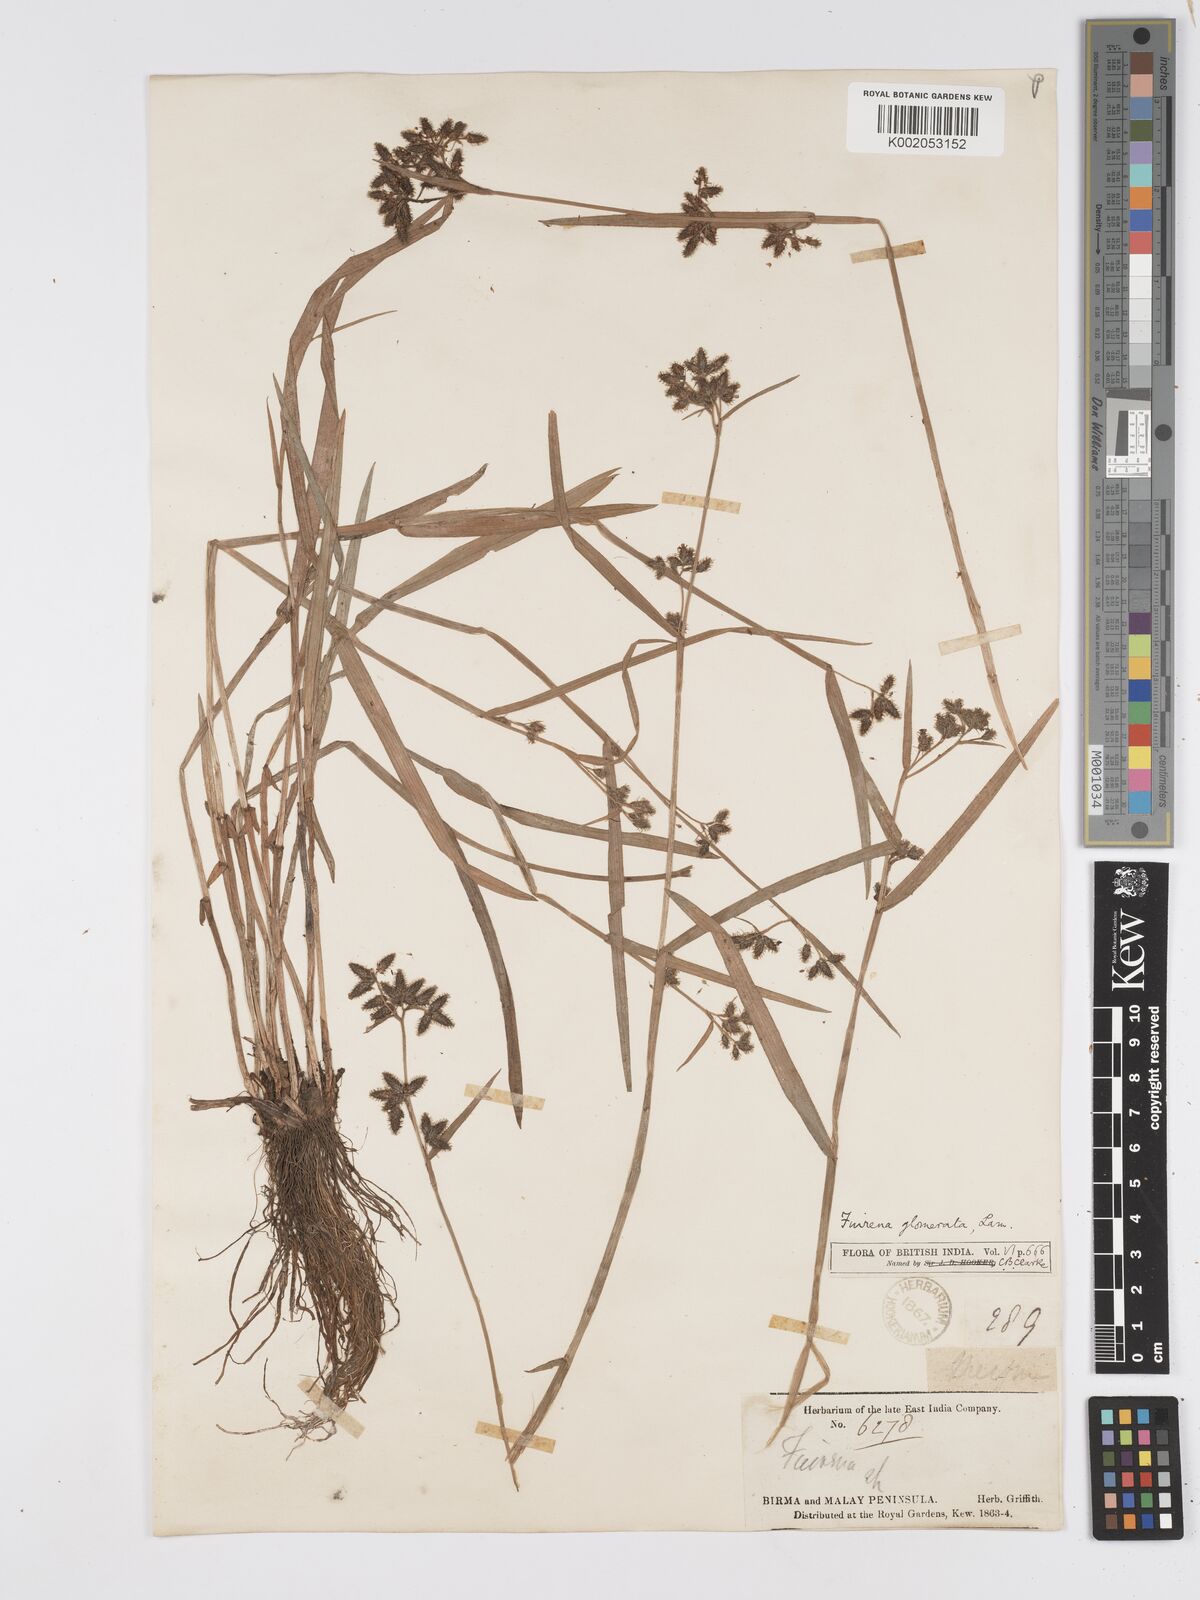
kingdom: Plantae
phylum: Tracheophyta
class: Liliopsida
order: Poales
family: Cyperaceae
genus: Fuirena
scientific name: Fuirena ciliaris
